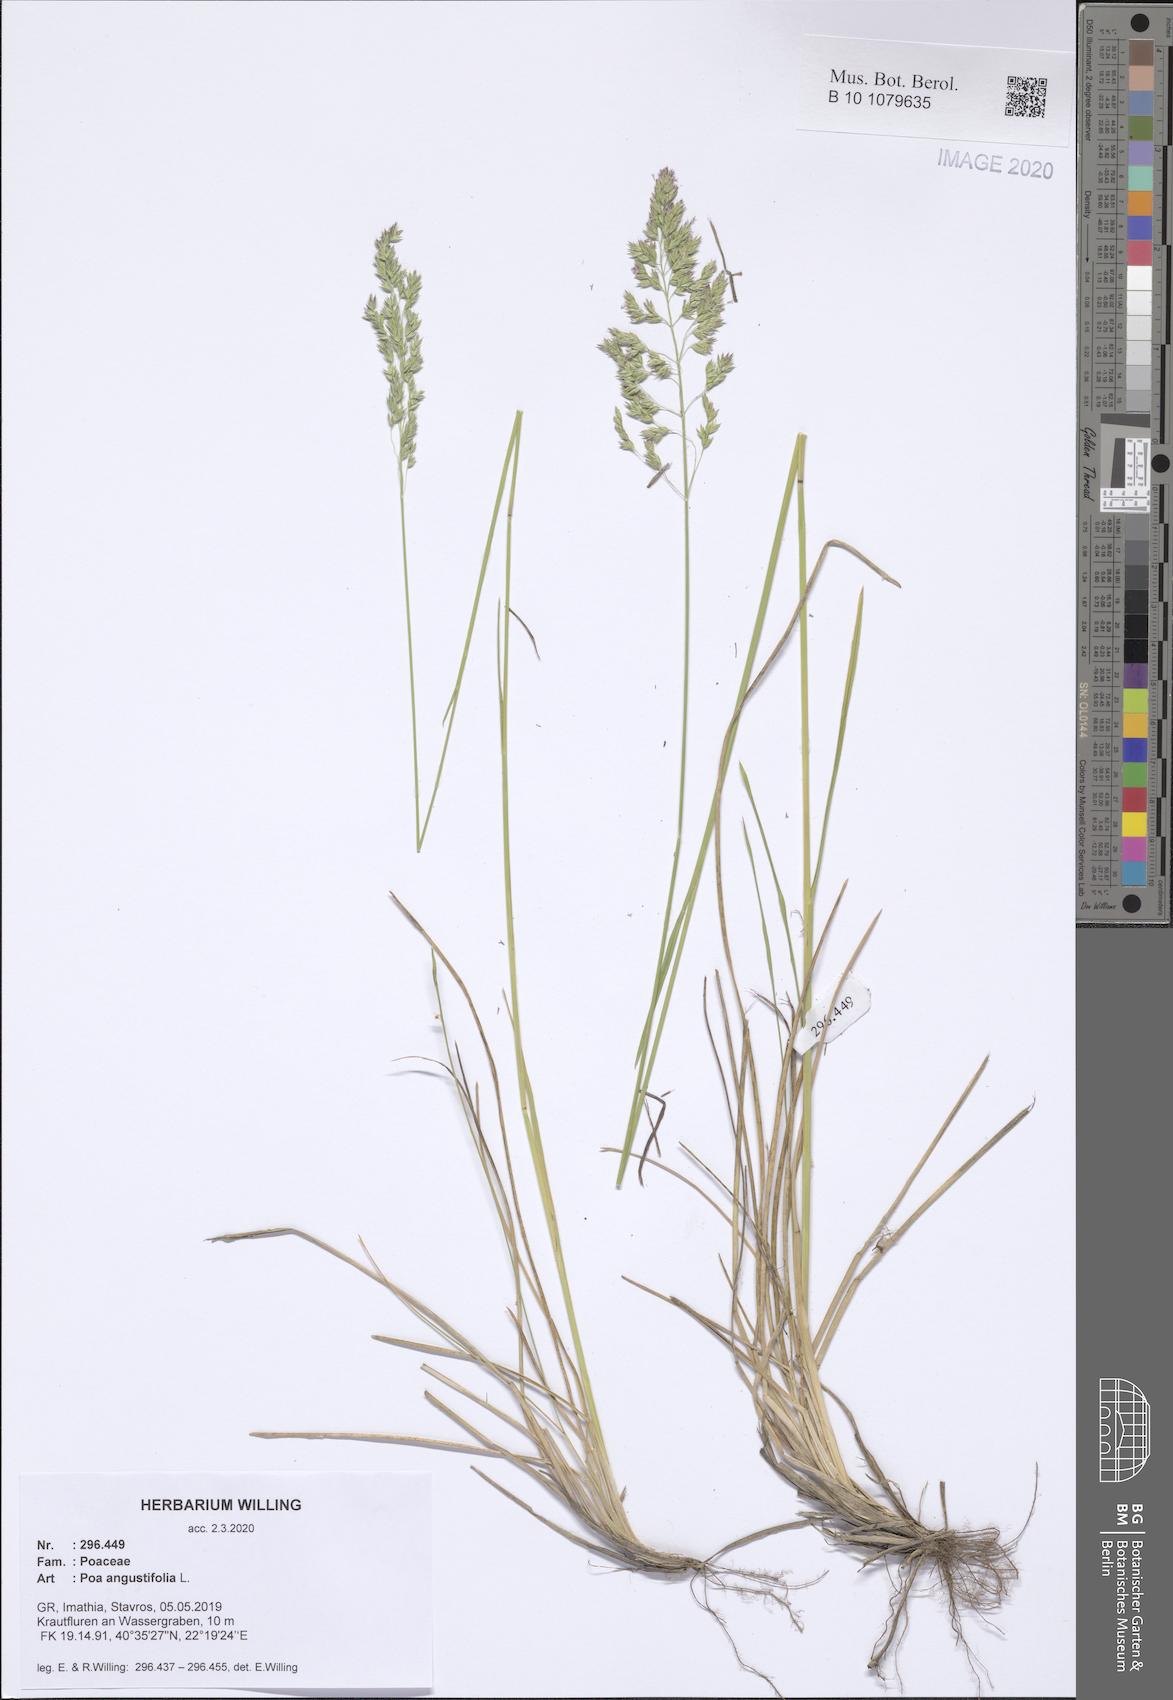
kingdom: Plantae
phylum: Tracheophyta
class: Liliopsida
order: Poales
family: Poaceae
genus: Poa
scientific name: Poa angustifolia
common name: Narrow-leaved meadow-grass
